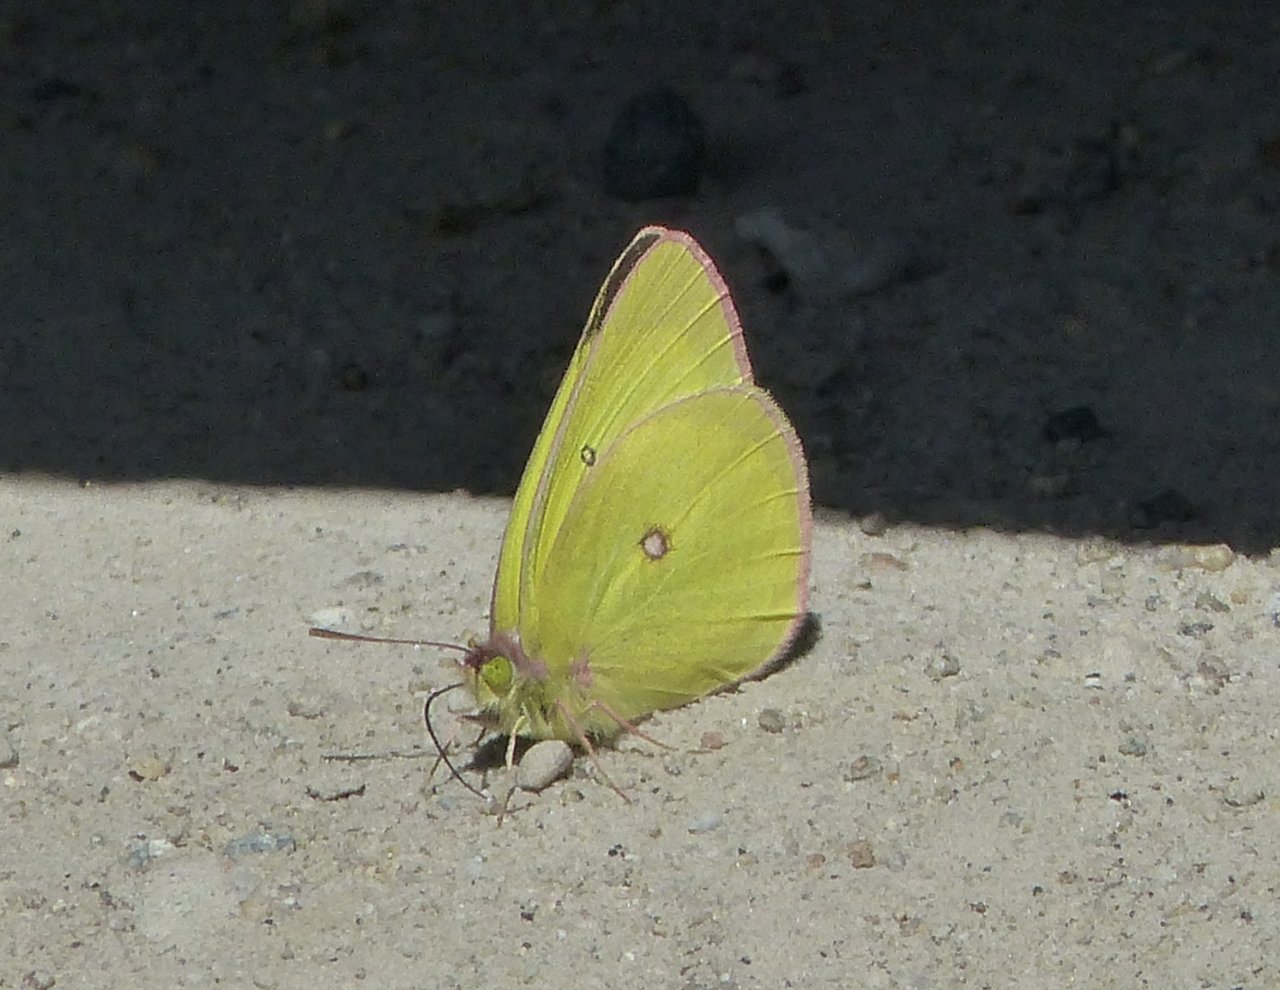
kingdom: Animalia
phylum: Arthropoda
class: Insecta
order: Lepidoptera
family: Pieridae
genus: Colias
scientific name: Colias interior
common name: Pink-edged Sulphur
